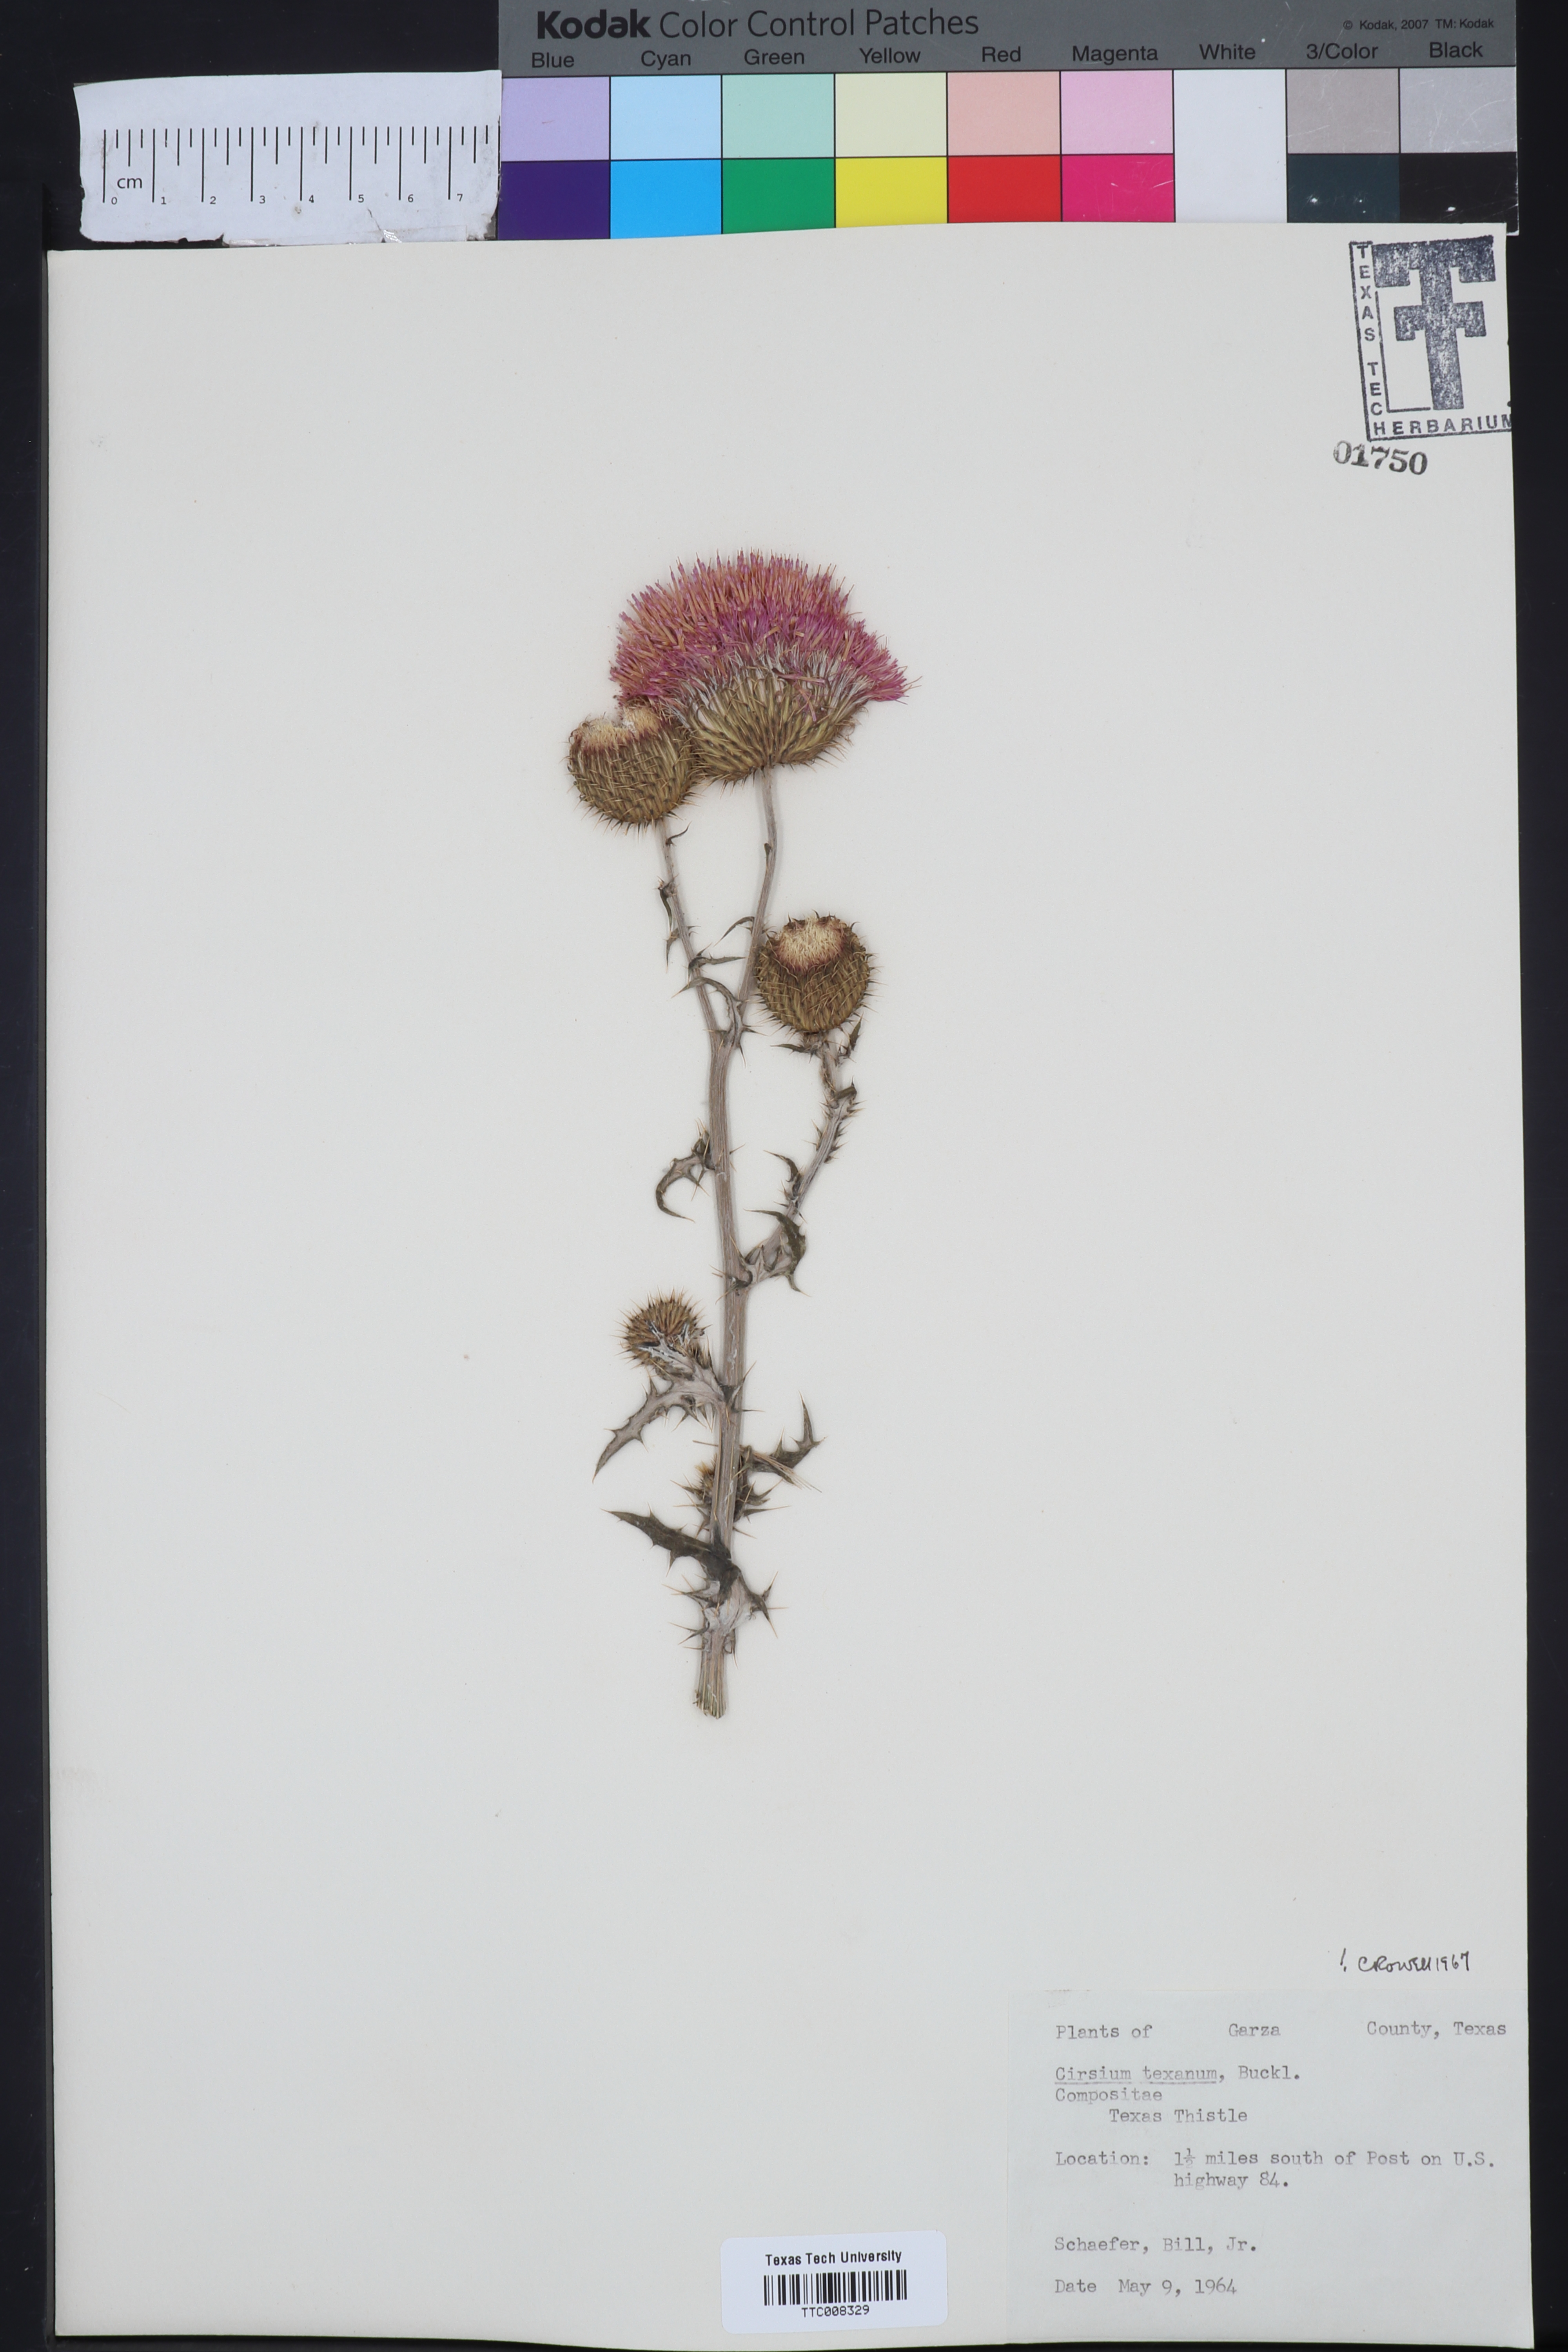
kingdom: Plantae
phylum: Tracheophyta
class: Magnoliopsida
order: Asterales
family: Asteraceae
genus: Cirsium
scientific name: Cirsium texanum
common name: Texas purple thistle
